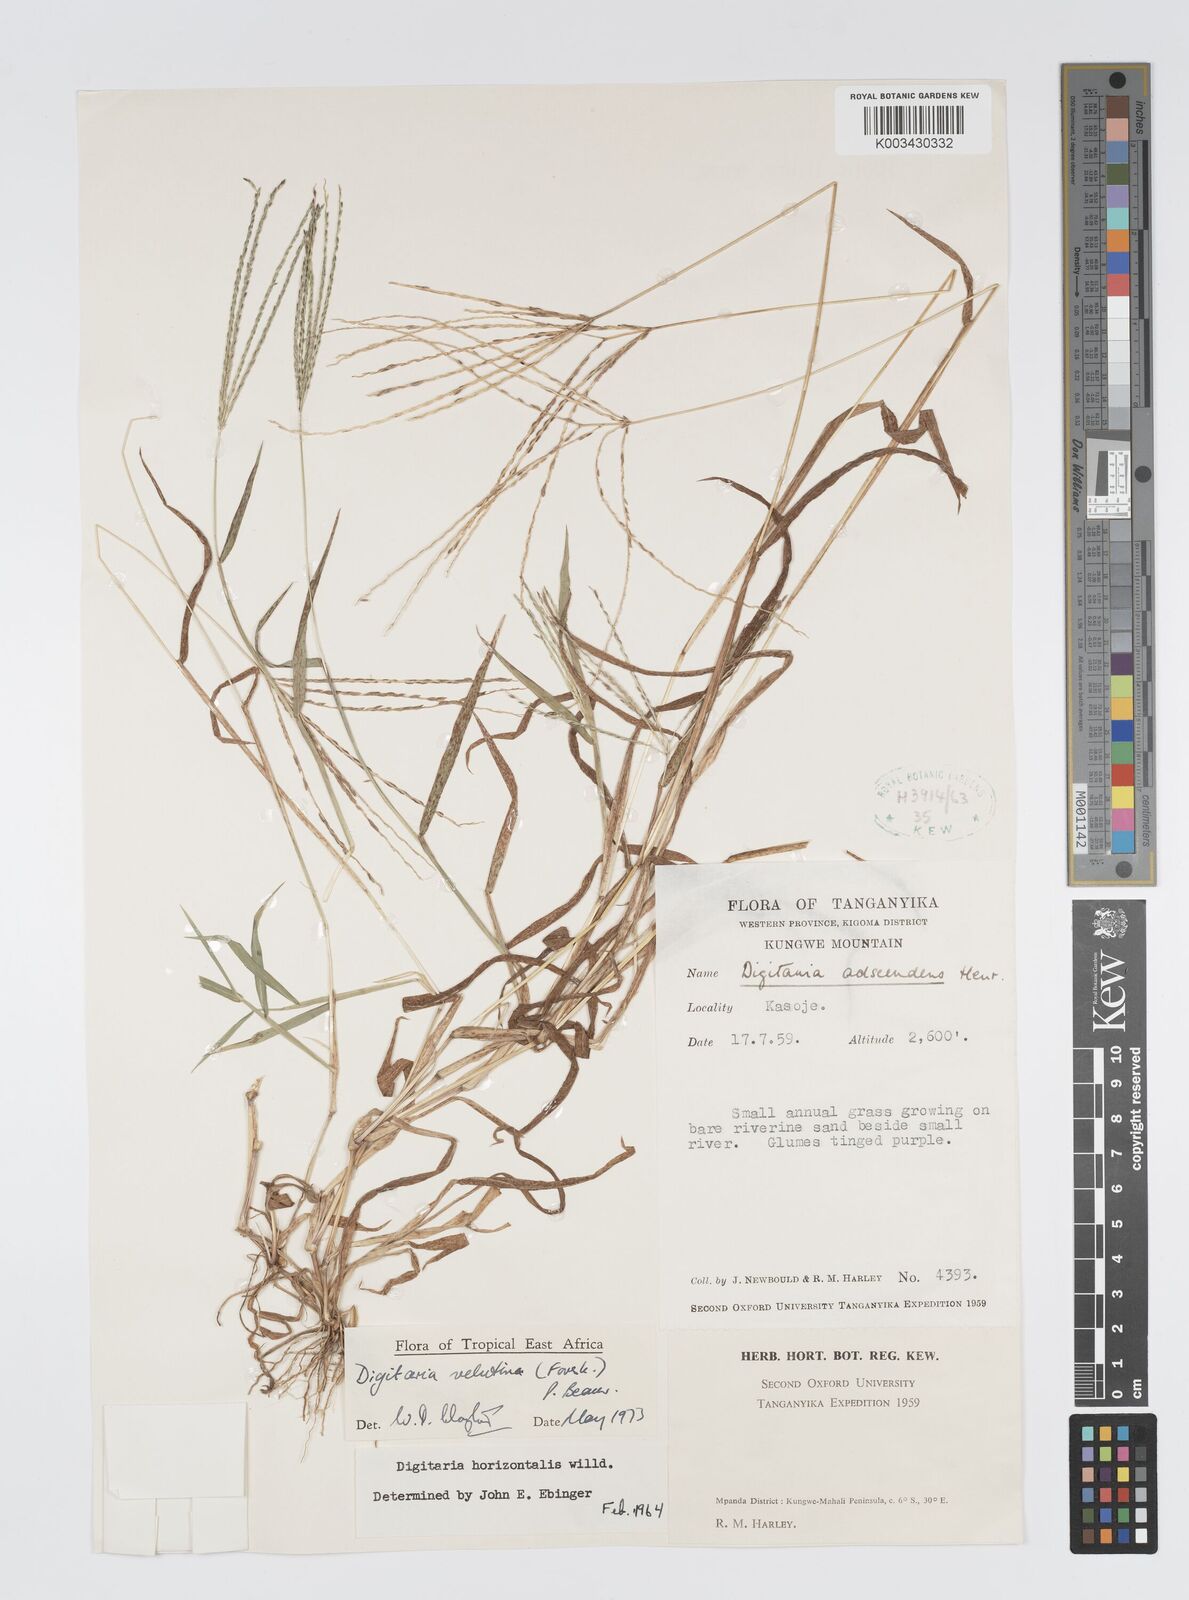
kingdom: Plantae
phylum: Tracheophyta
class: Liliopsida
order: Poales
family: Poaceae
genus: Digitaria
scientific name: Digitaria velutina
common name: Long-plume finger grass
